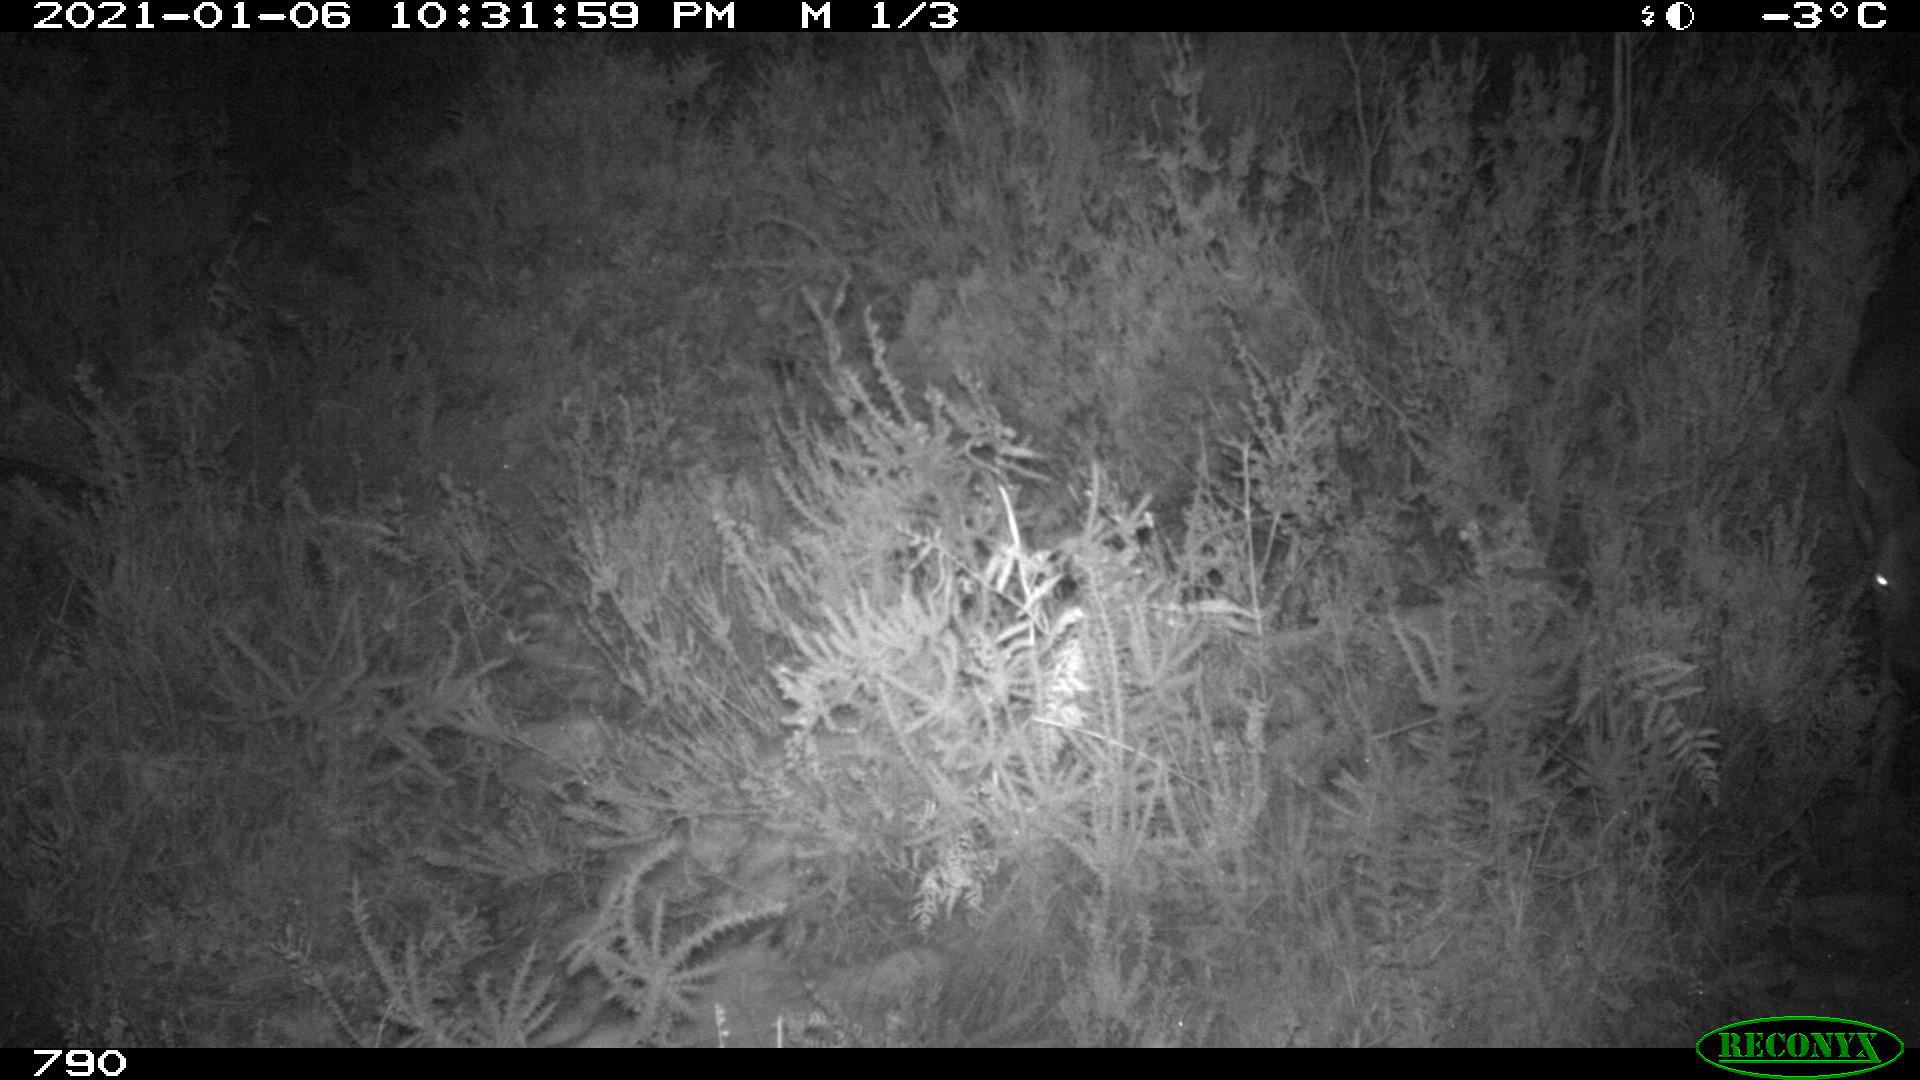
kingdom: Animalia
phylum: Chordata
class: Mammalia
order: Artiodactyla
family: Cervidae
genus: Capreolus
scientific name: Capreolus capreolus
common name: Western roe deer
